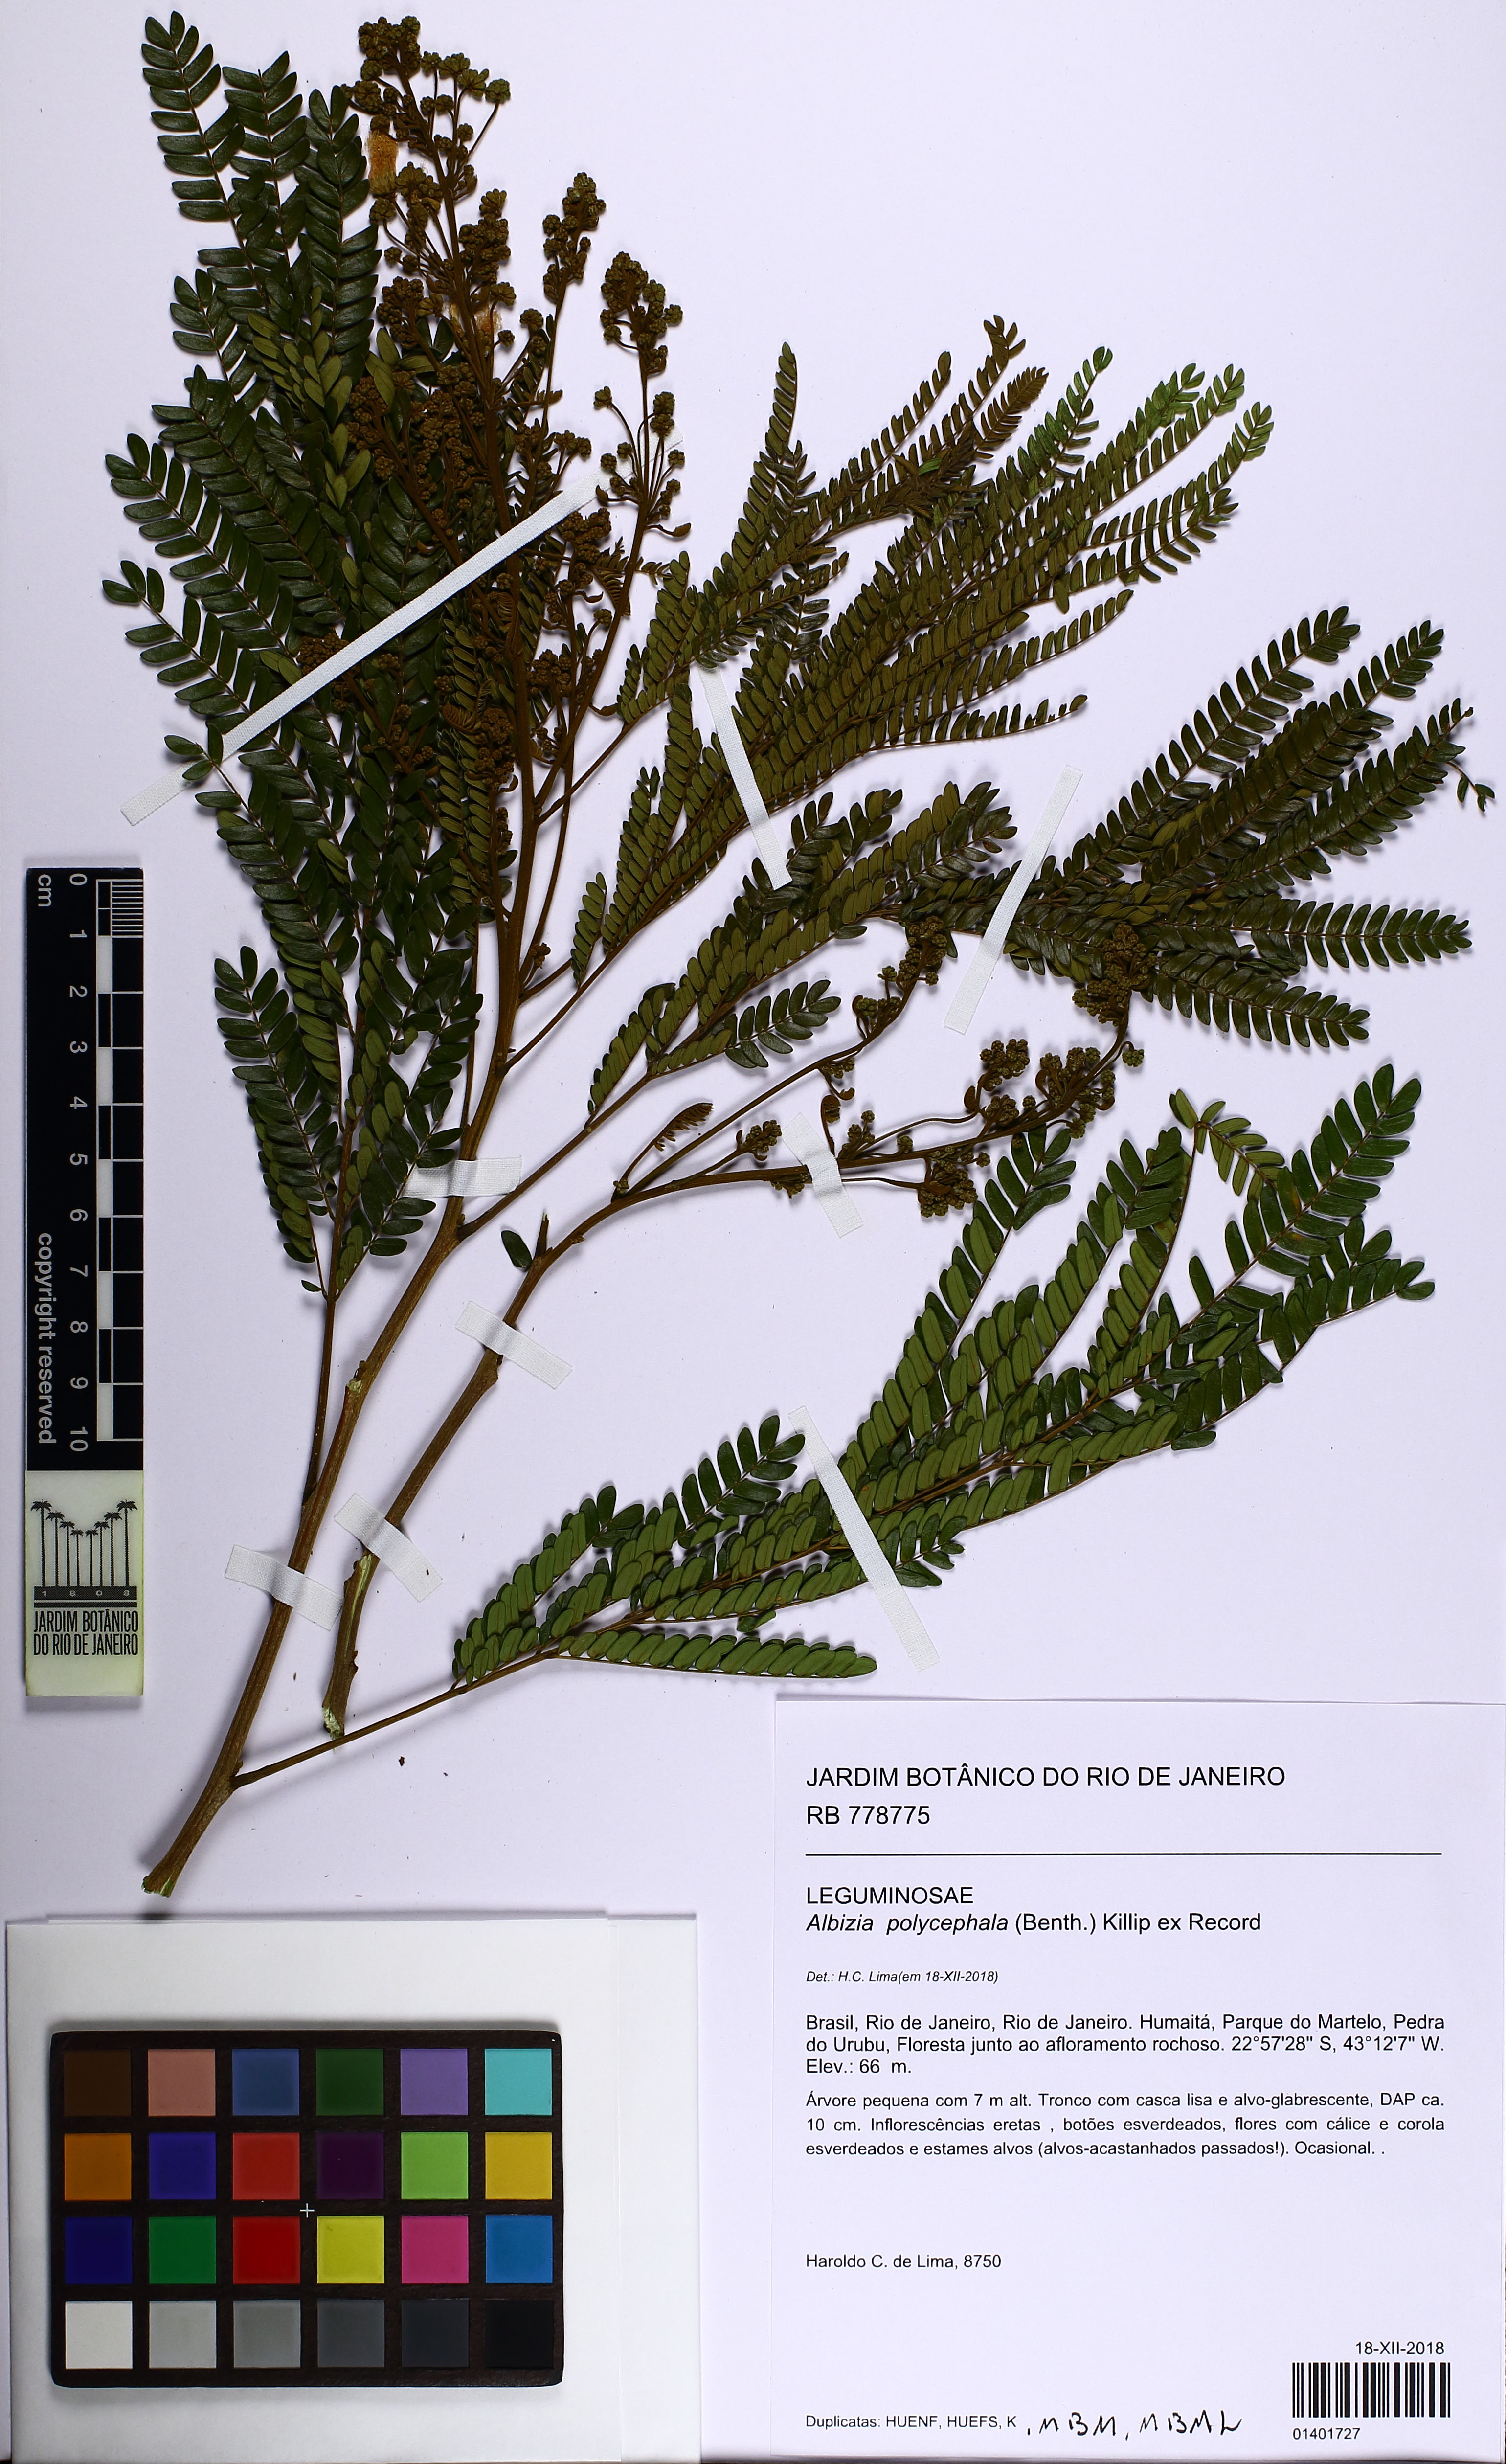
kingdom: Plantae
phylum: Tracheophyta
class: Magnoliopsida
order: Fabales
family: Fabaceae
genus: Albizia
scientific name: Albizia polycephala
